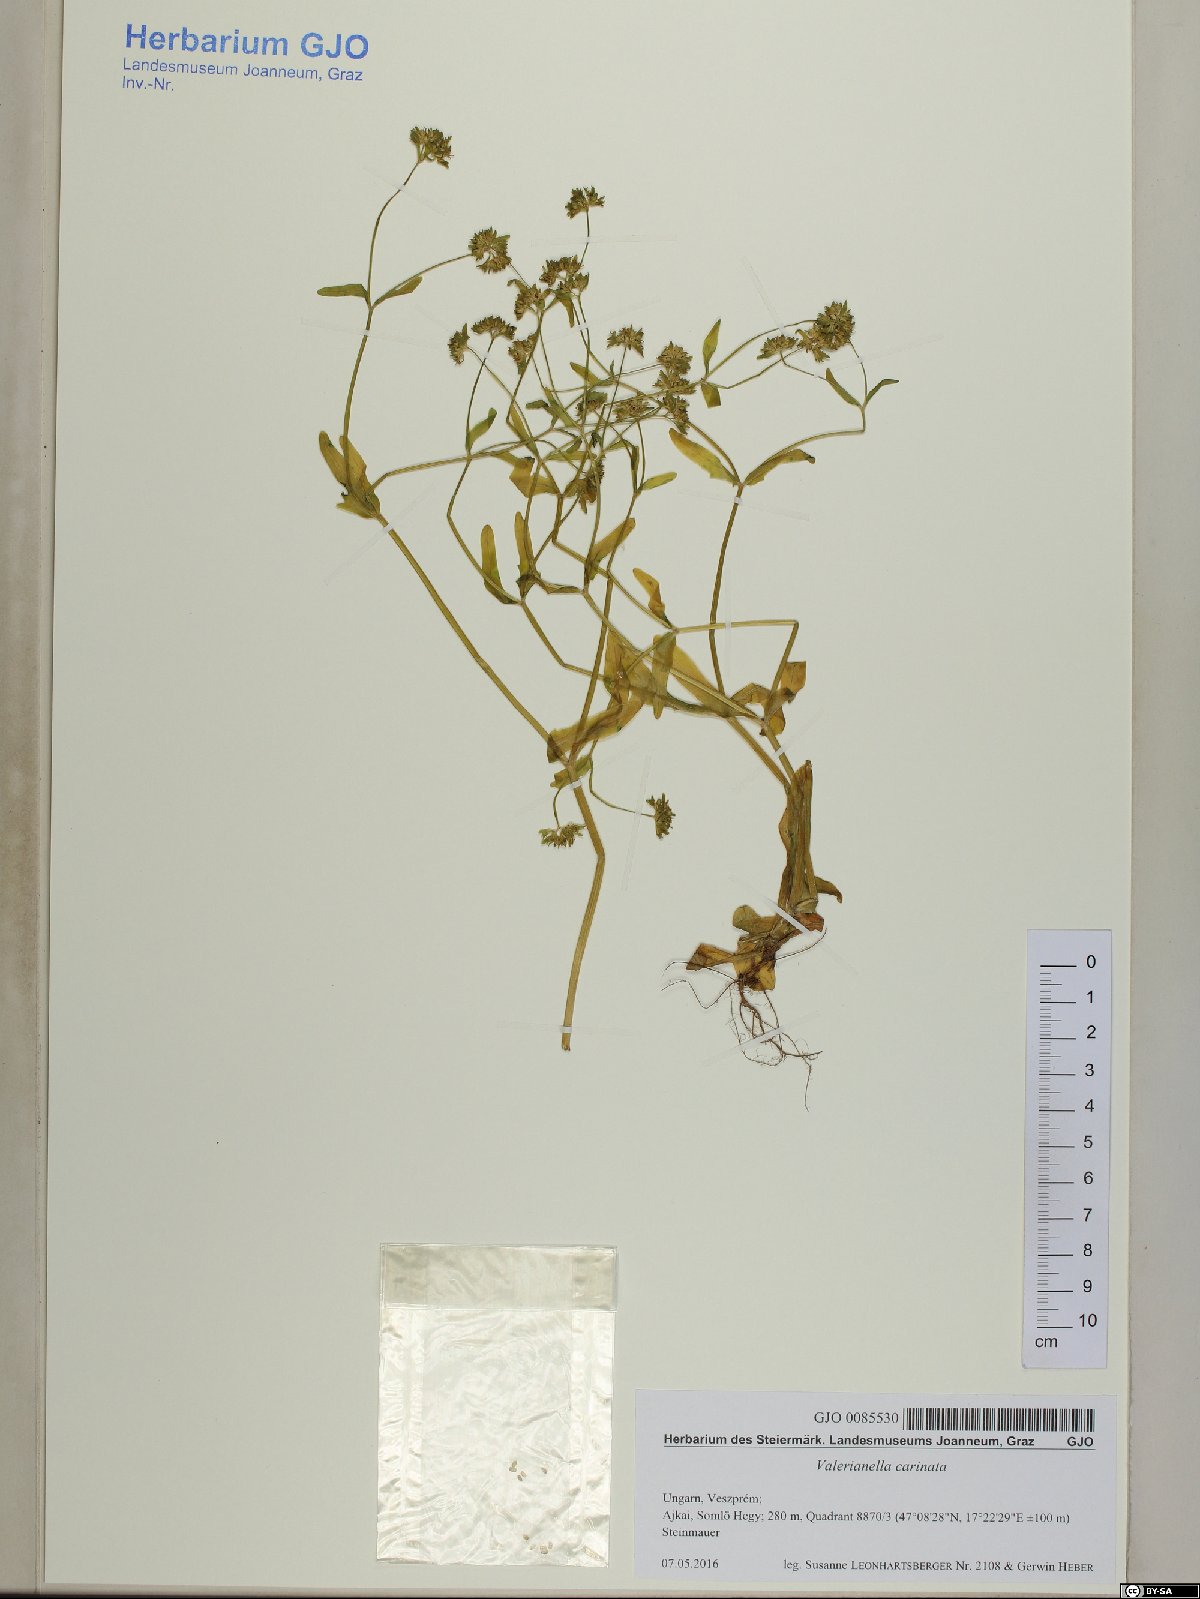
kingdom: Plantae
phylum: Tracheophyta
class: Magnoliopsida
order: Dipsacales
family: Caprifoliaceae
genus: Valerianella
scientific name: Valerianella carinata
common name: Keeled-fruited cornsalad
